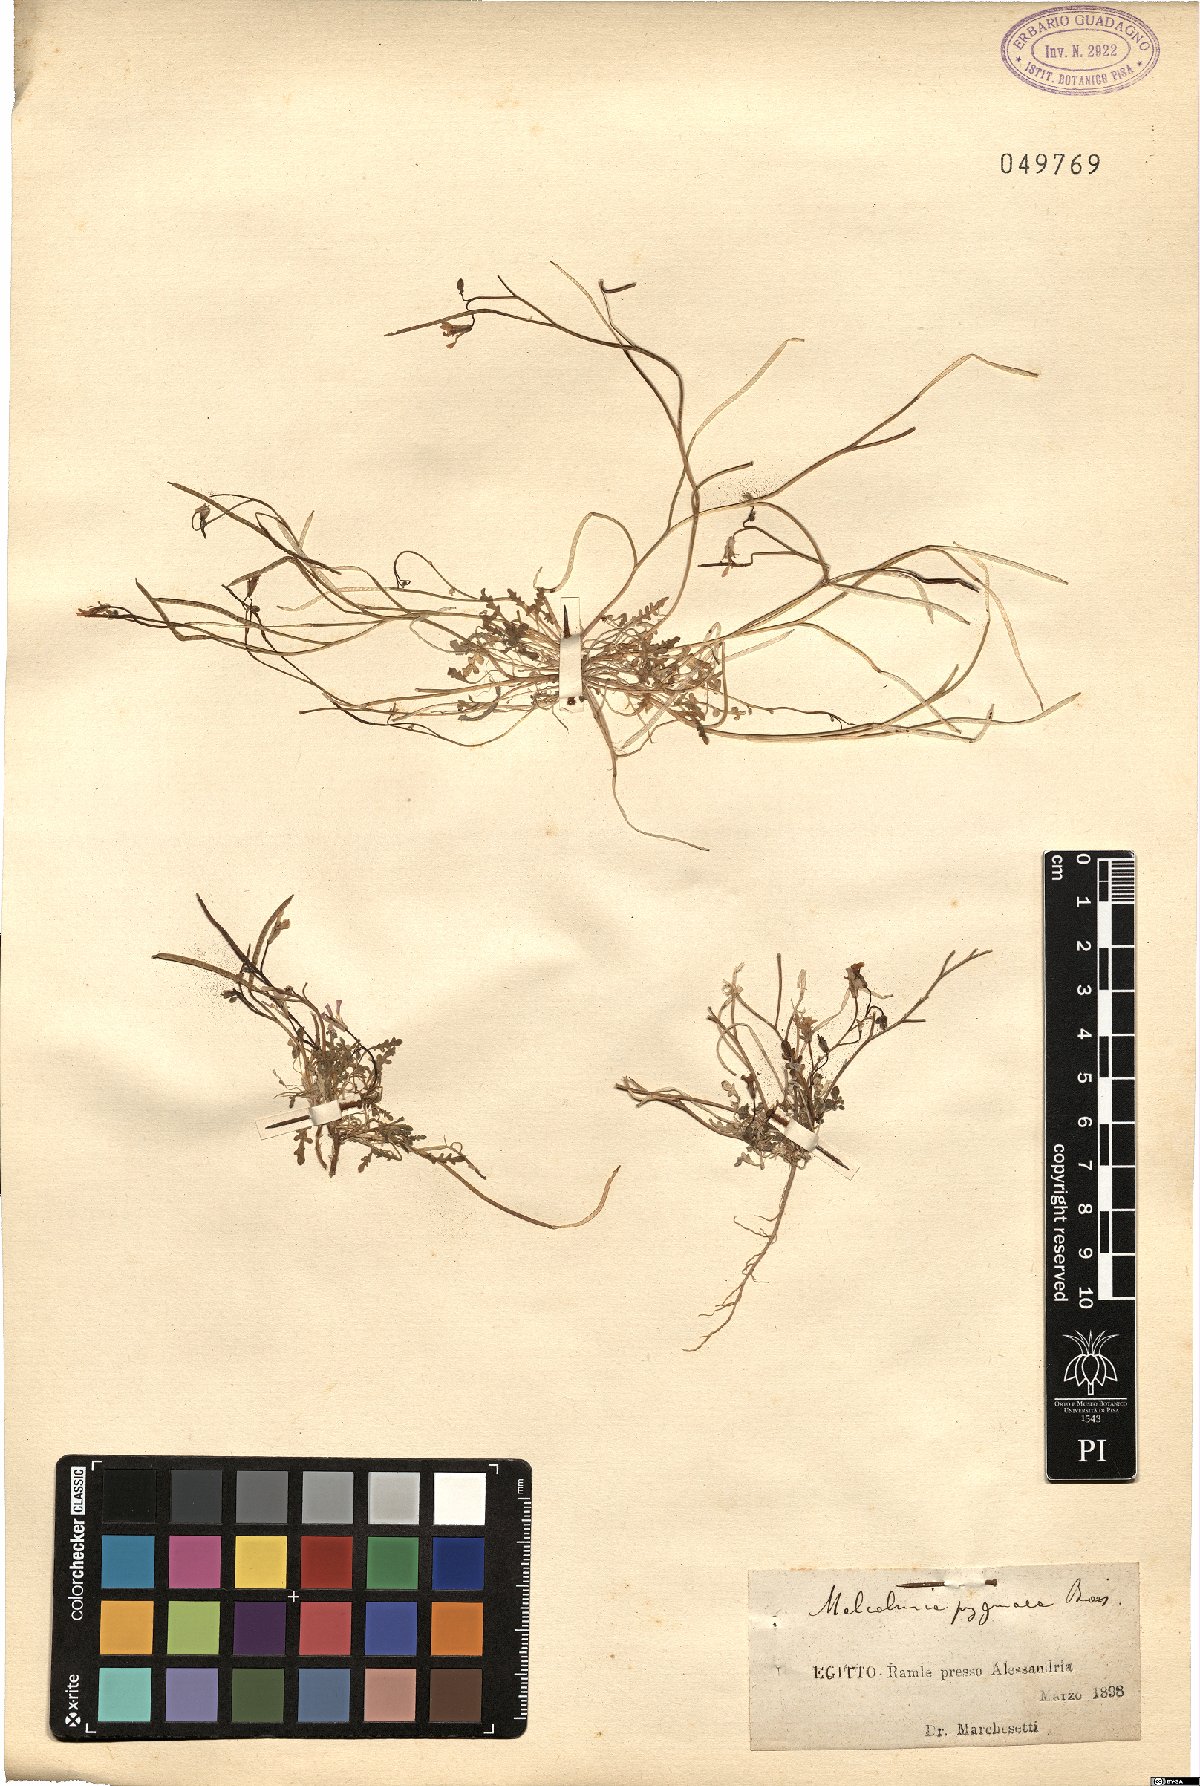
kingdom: Plantae
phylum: Tracheophyta
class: Magnoliopsida
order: Brassicales
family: Brassicaceae
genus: Maresia
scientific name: Maresia pygmaea
